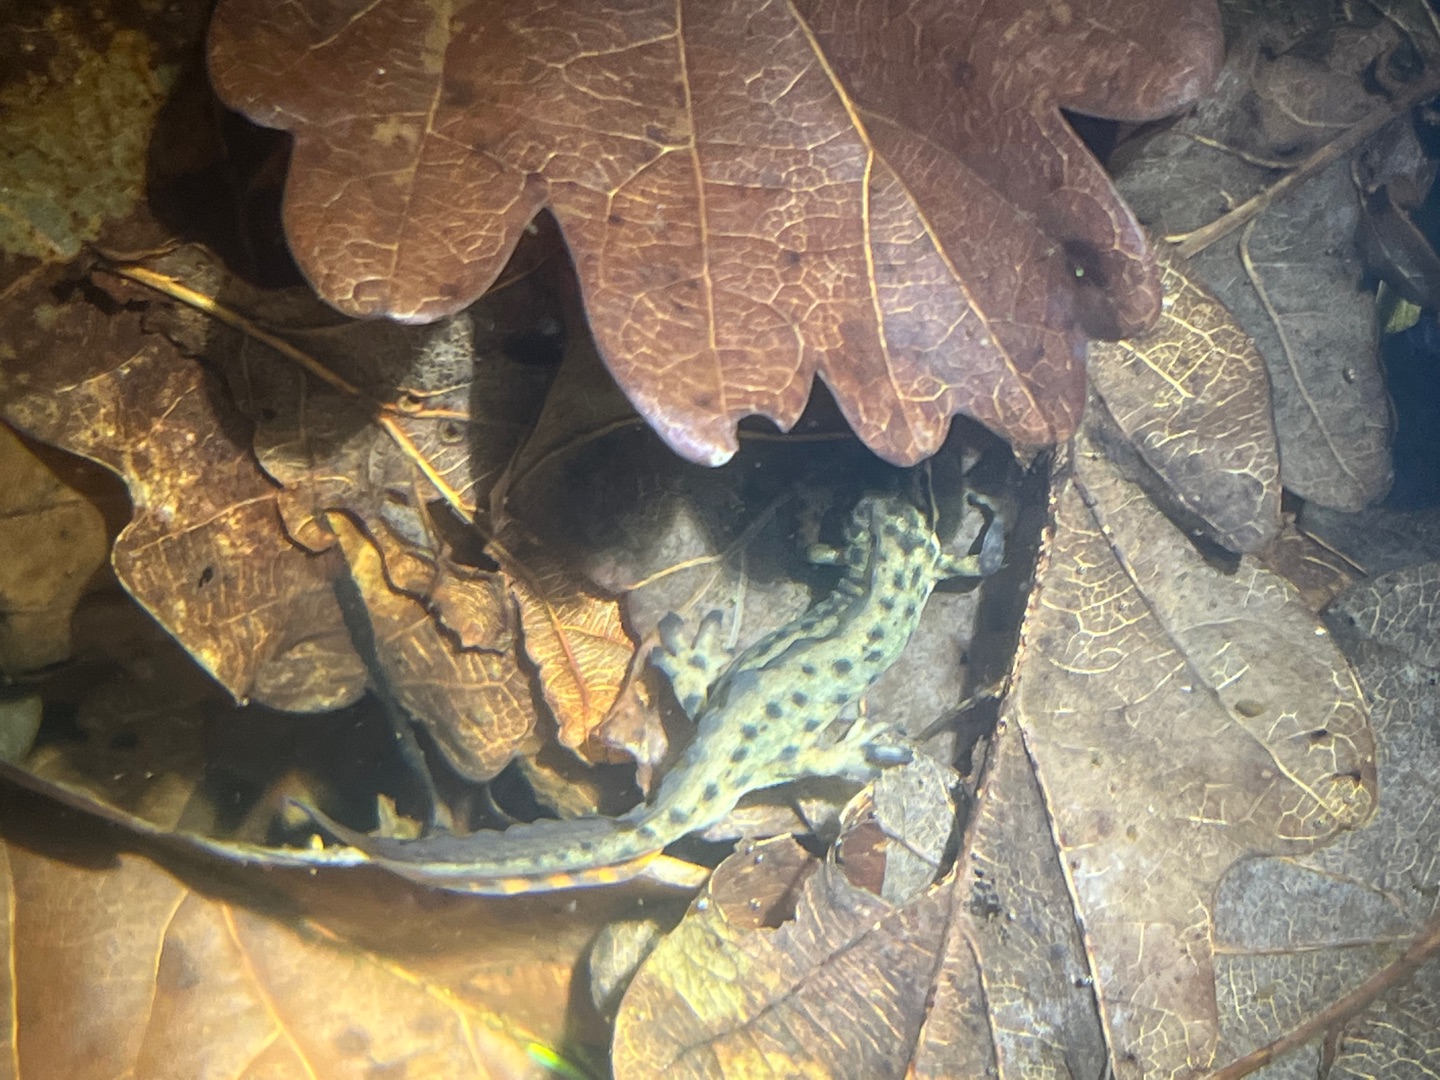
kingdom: Animalia
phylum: Chordata
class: Amphibia
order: Caudata
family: Salamandridae
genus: Lissotriton
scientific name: Lissotriton vulgaris
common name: Lille vandsalamander
